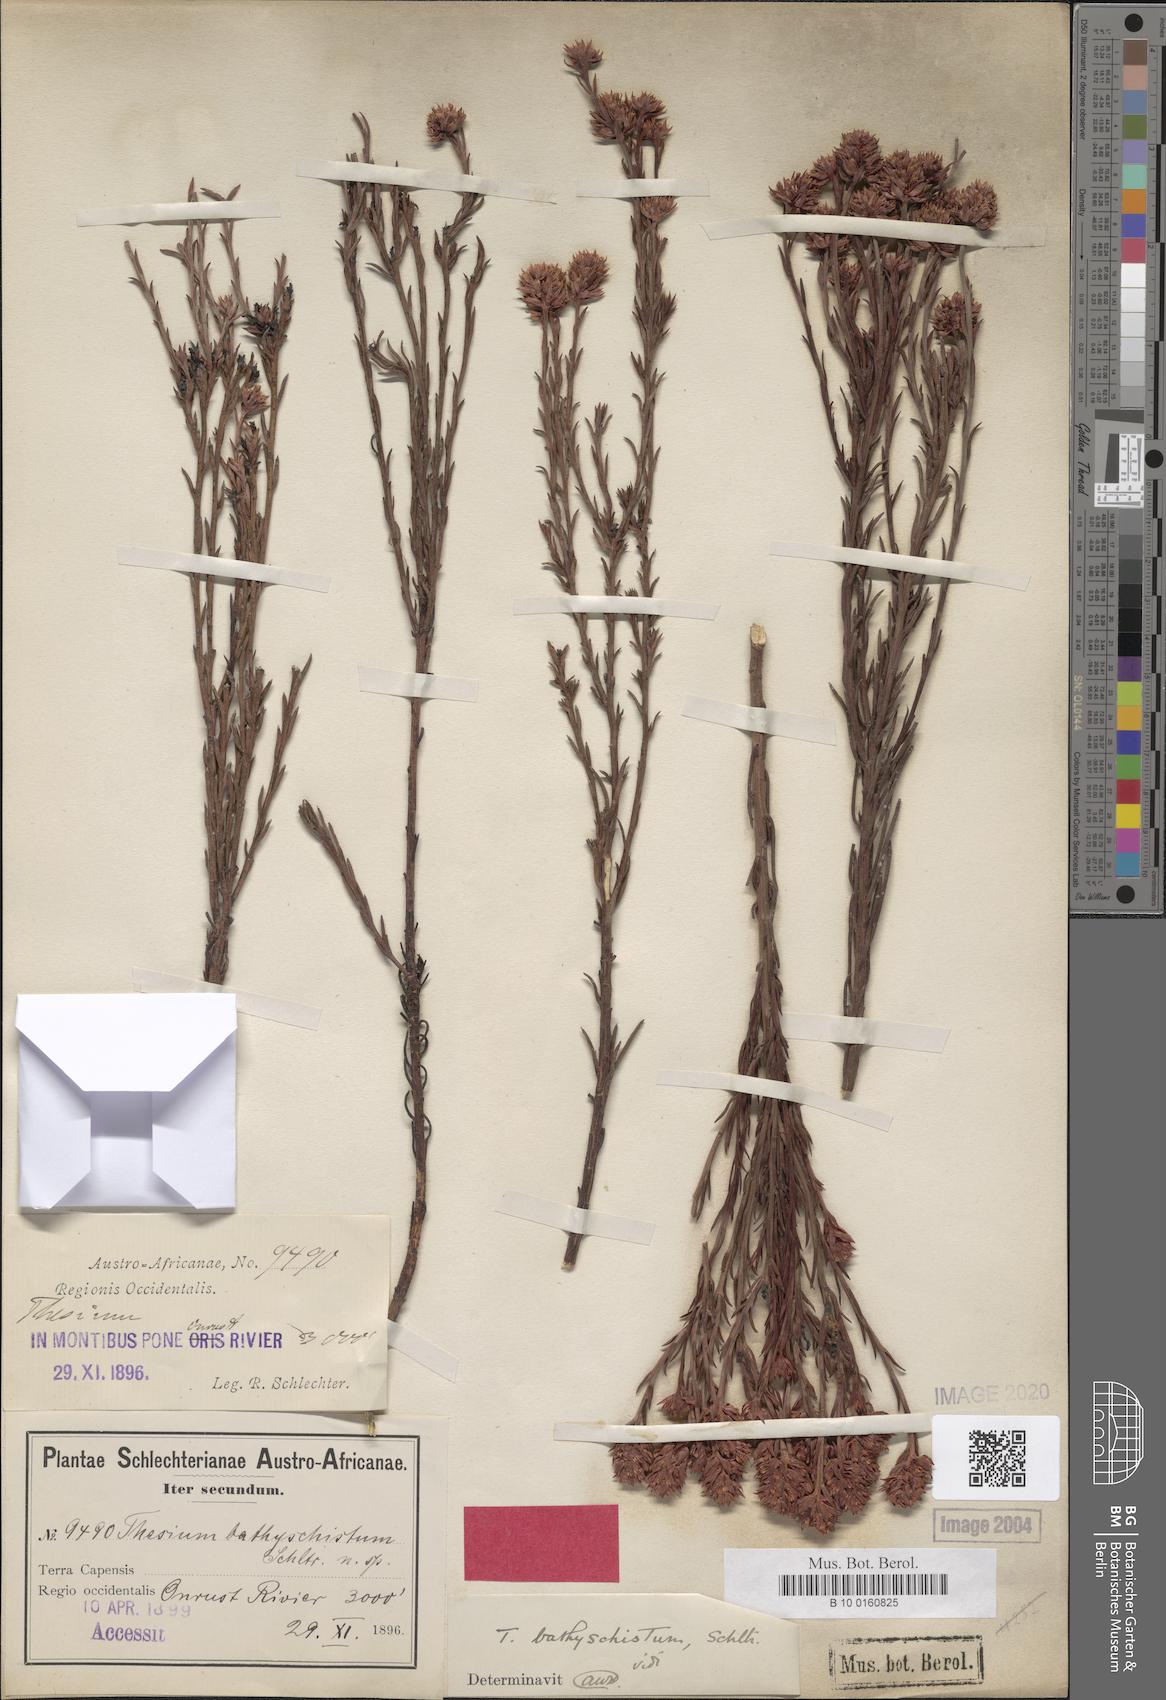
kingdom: Plantae
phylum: Tracheophyta
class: Magnoliopsida
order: Santalales
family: Thesiaceae
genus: Thesium
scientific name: Thesium bathyschistum
